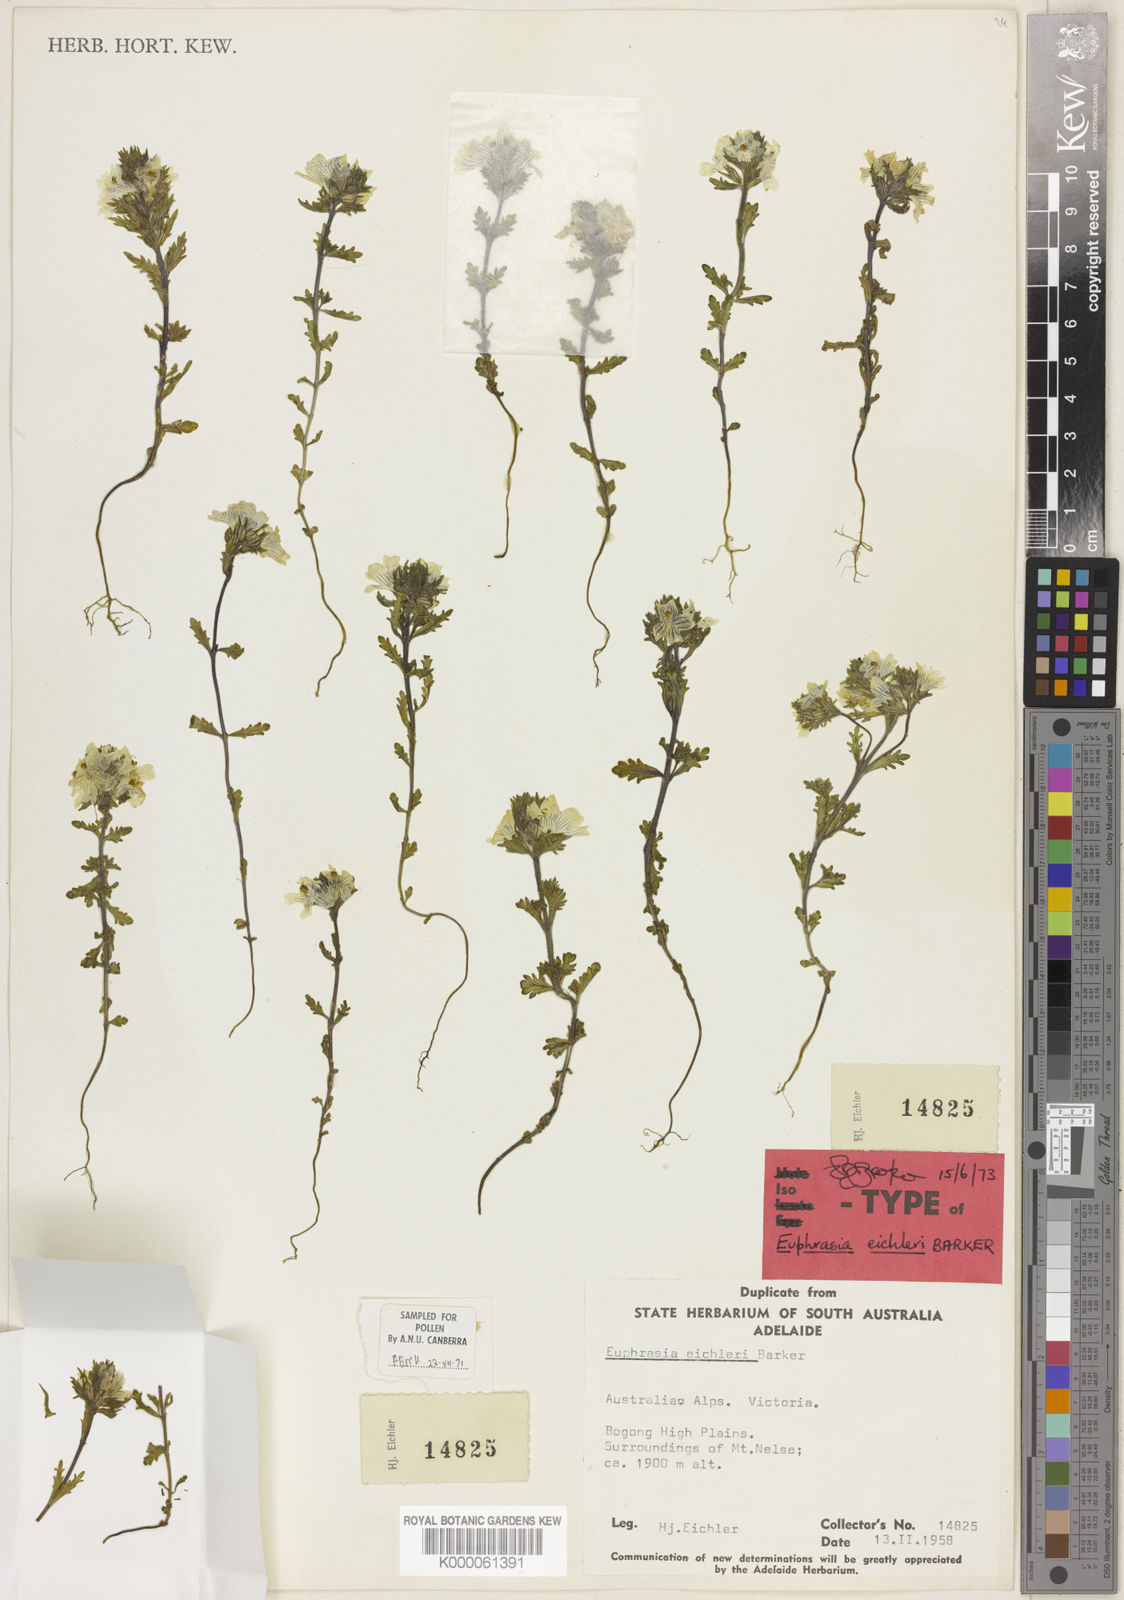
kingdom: Plantae
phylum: Tracheophyta
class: Magnoliopsida
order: Lamiales
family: Orobanchaceae
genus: Euphrasia
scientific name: Euphrasia eichleri
